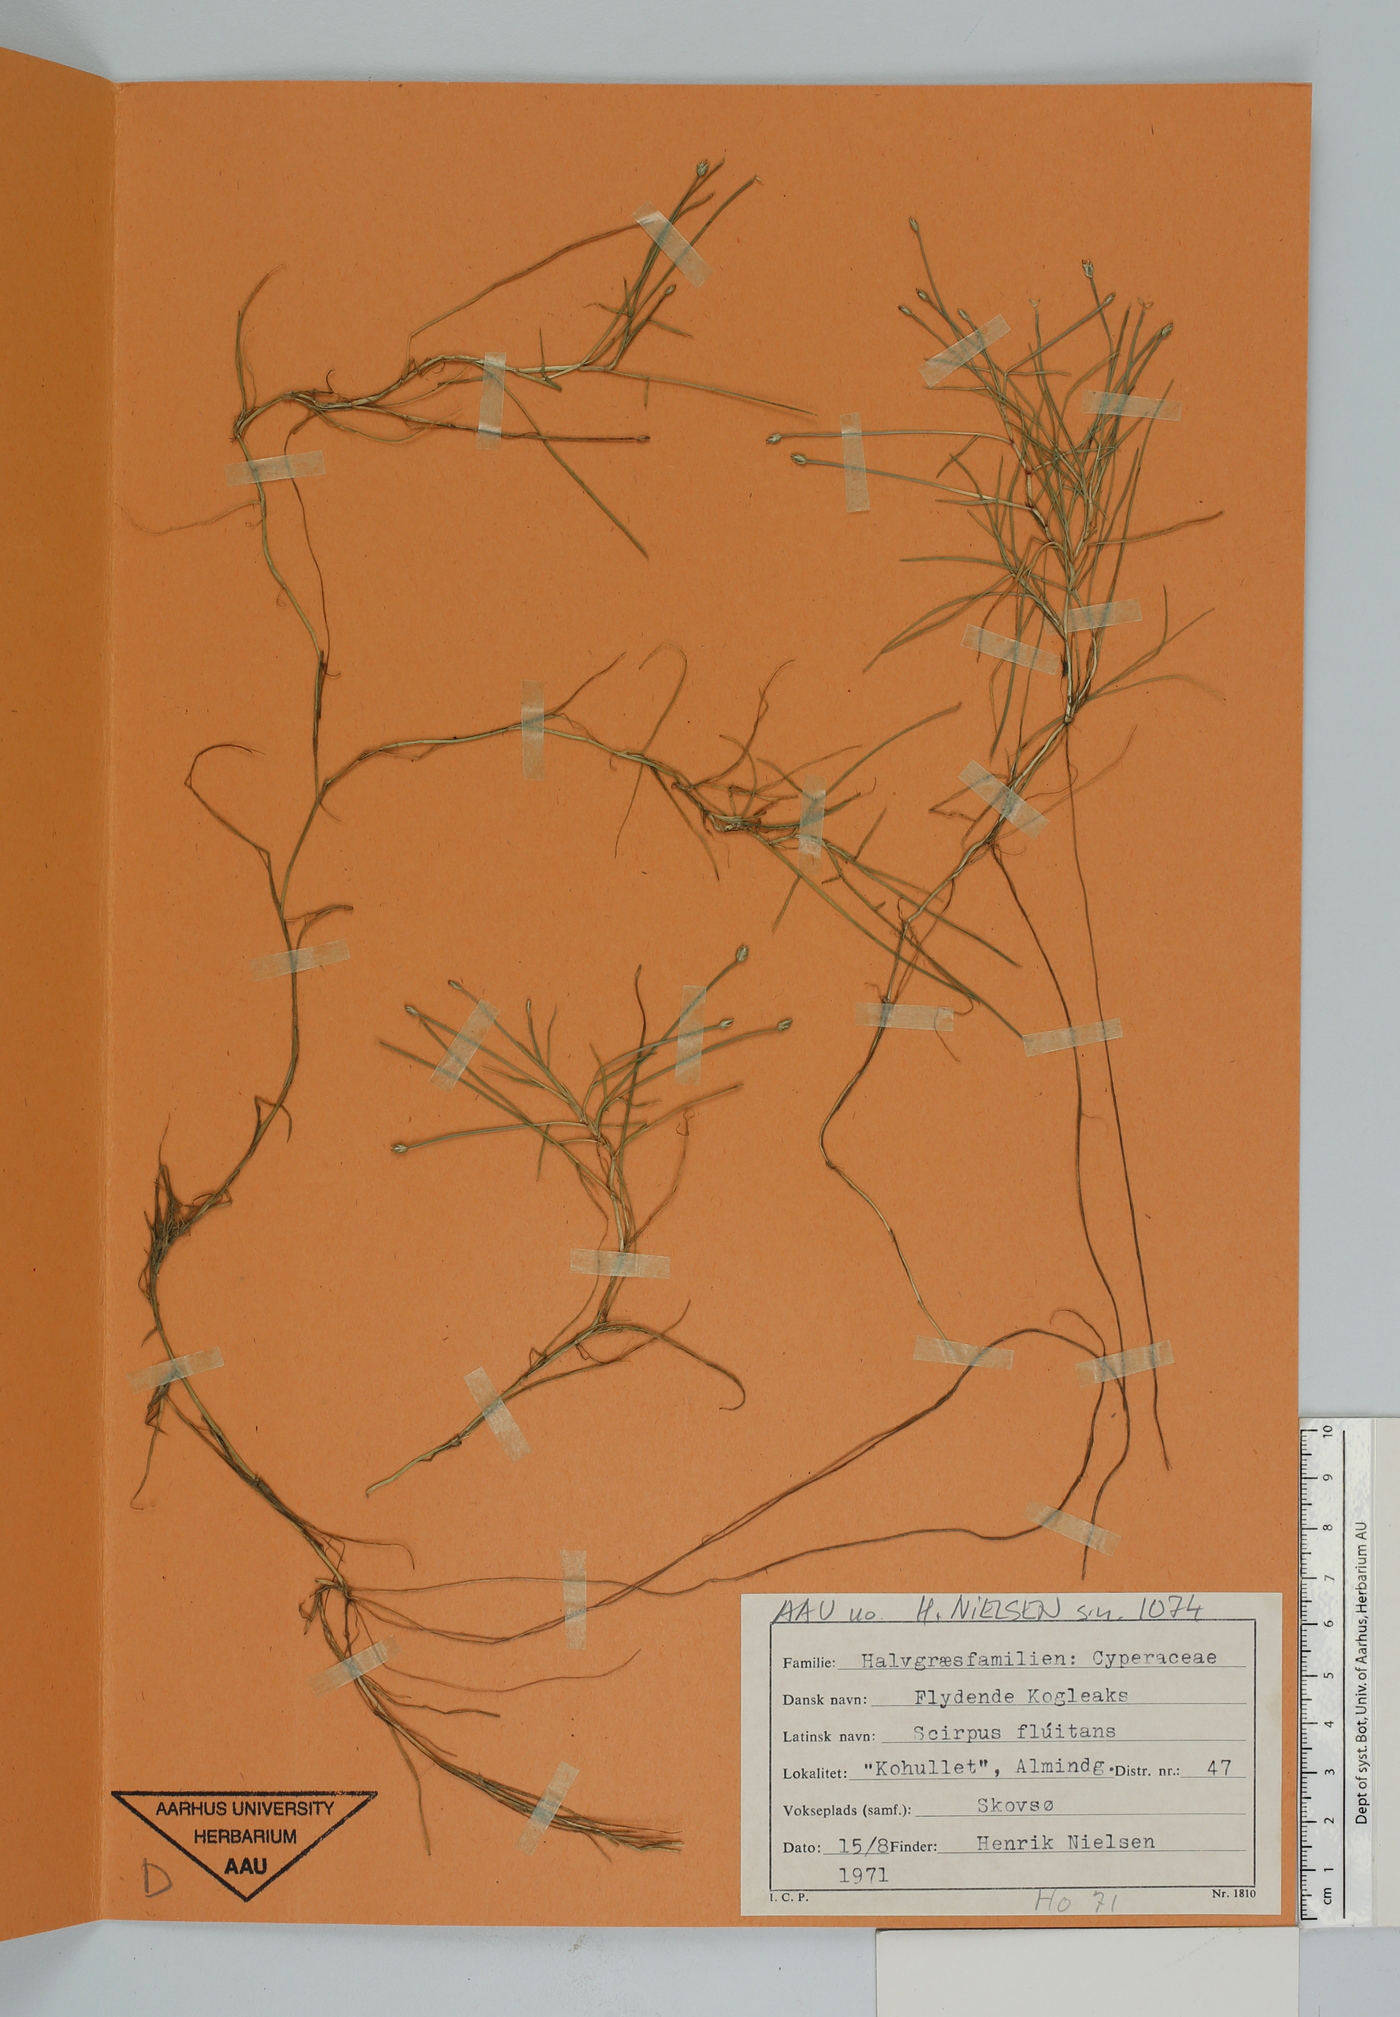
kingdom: Plantae
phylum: Tracheophyta
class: Liliopsida
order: Poales
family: Cyperaceae
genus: Isolepis
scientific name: Isolepis fluitans
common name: Floating club-rush
